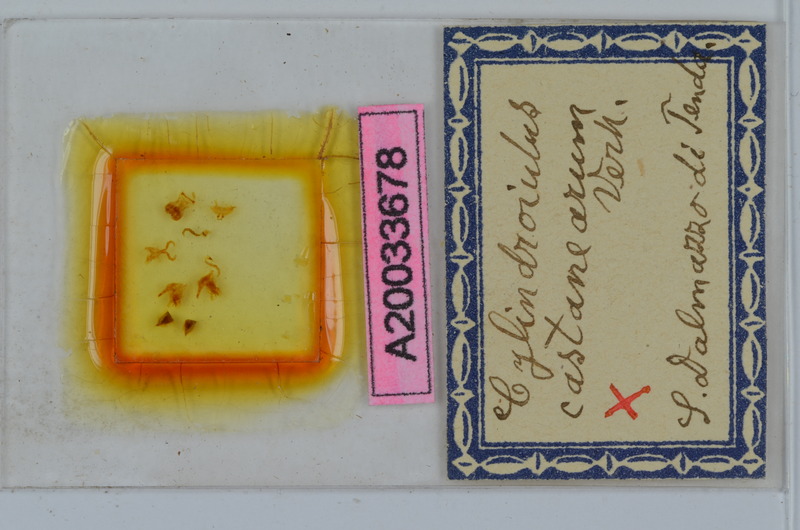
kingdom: Animalia
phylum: Arthropoda
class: Diplopoda
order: Julida
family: Julidae
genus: Cylindroiulus
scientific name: Cylindroiulus broti
